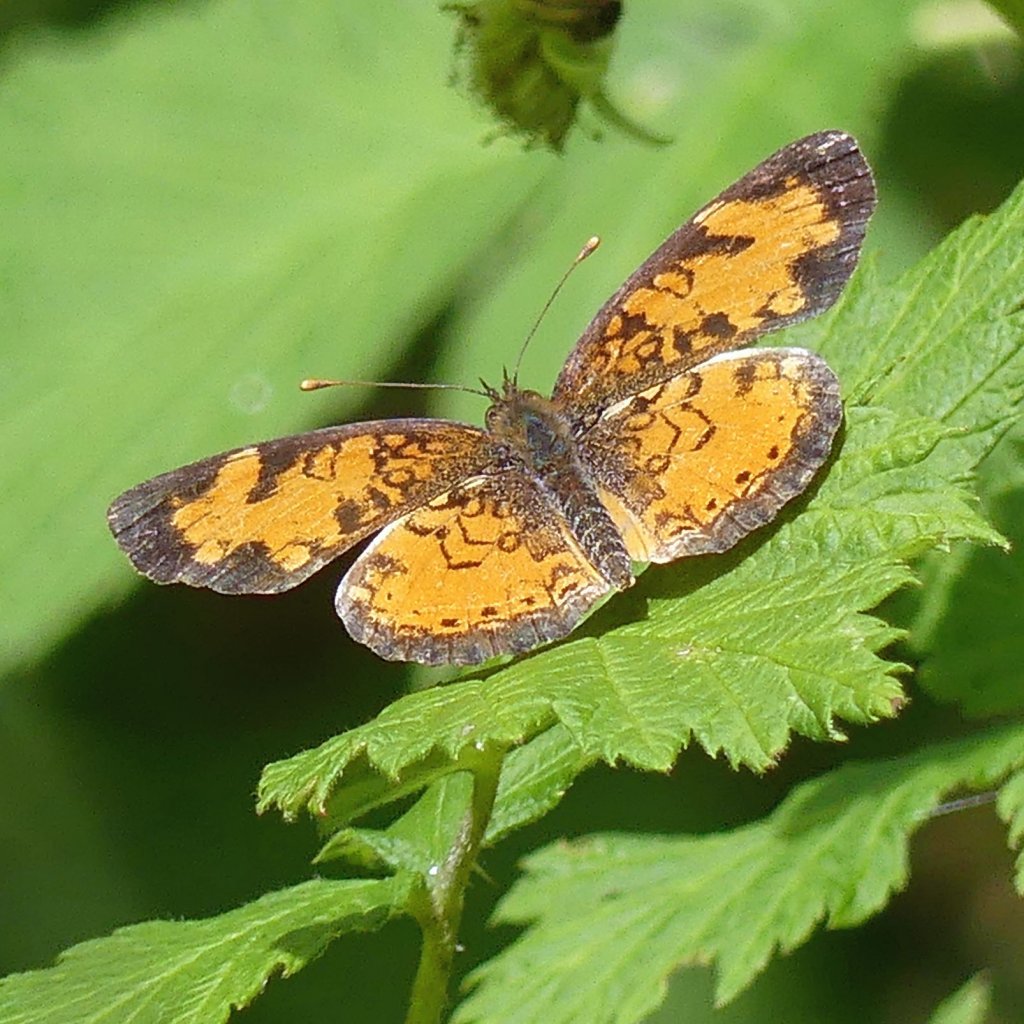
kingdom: Animalia
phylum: Arthropoda
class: Insecta
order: Lepidoptera
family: Nymphalidae
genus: Phyciodes
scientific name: Phyciodes tharos
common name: Northern Crescent
